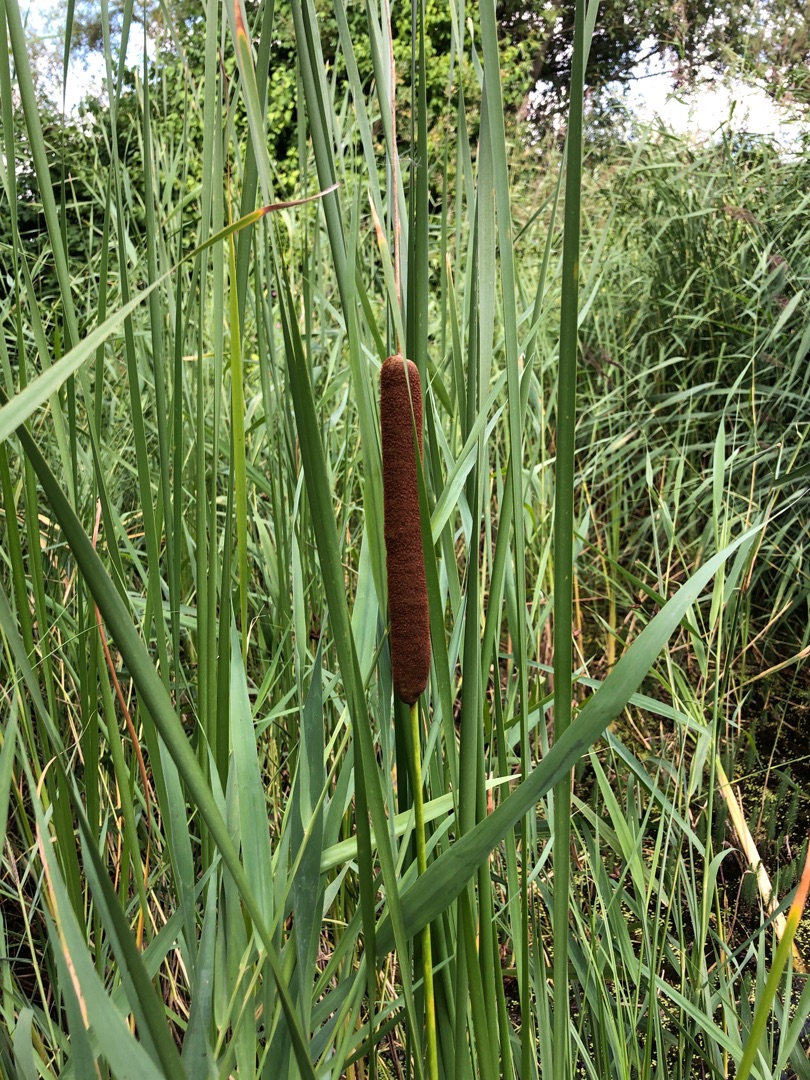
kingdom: Plantae
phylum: Tracheophyta
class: Liliopsida
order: Poales
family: Typhaceae
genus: Typha
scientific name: Typha angustifolia
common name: Smalbladet dunhammer
